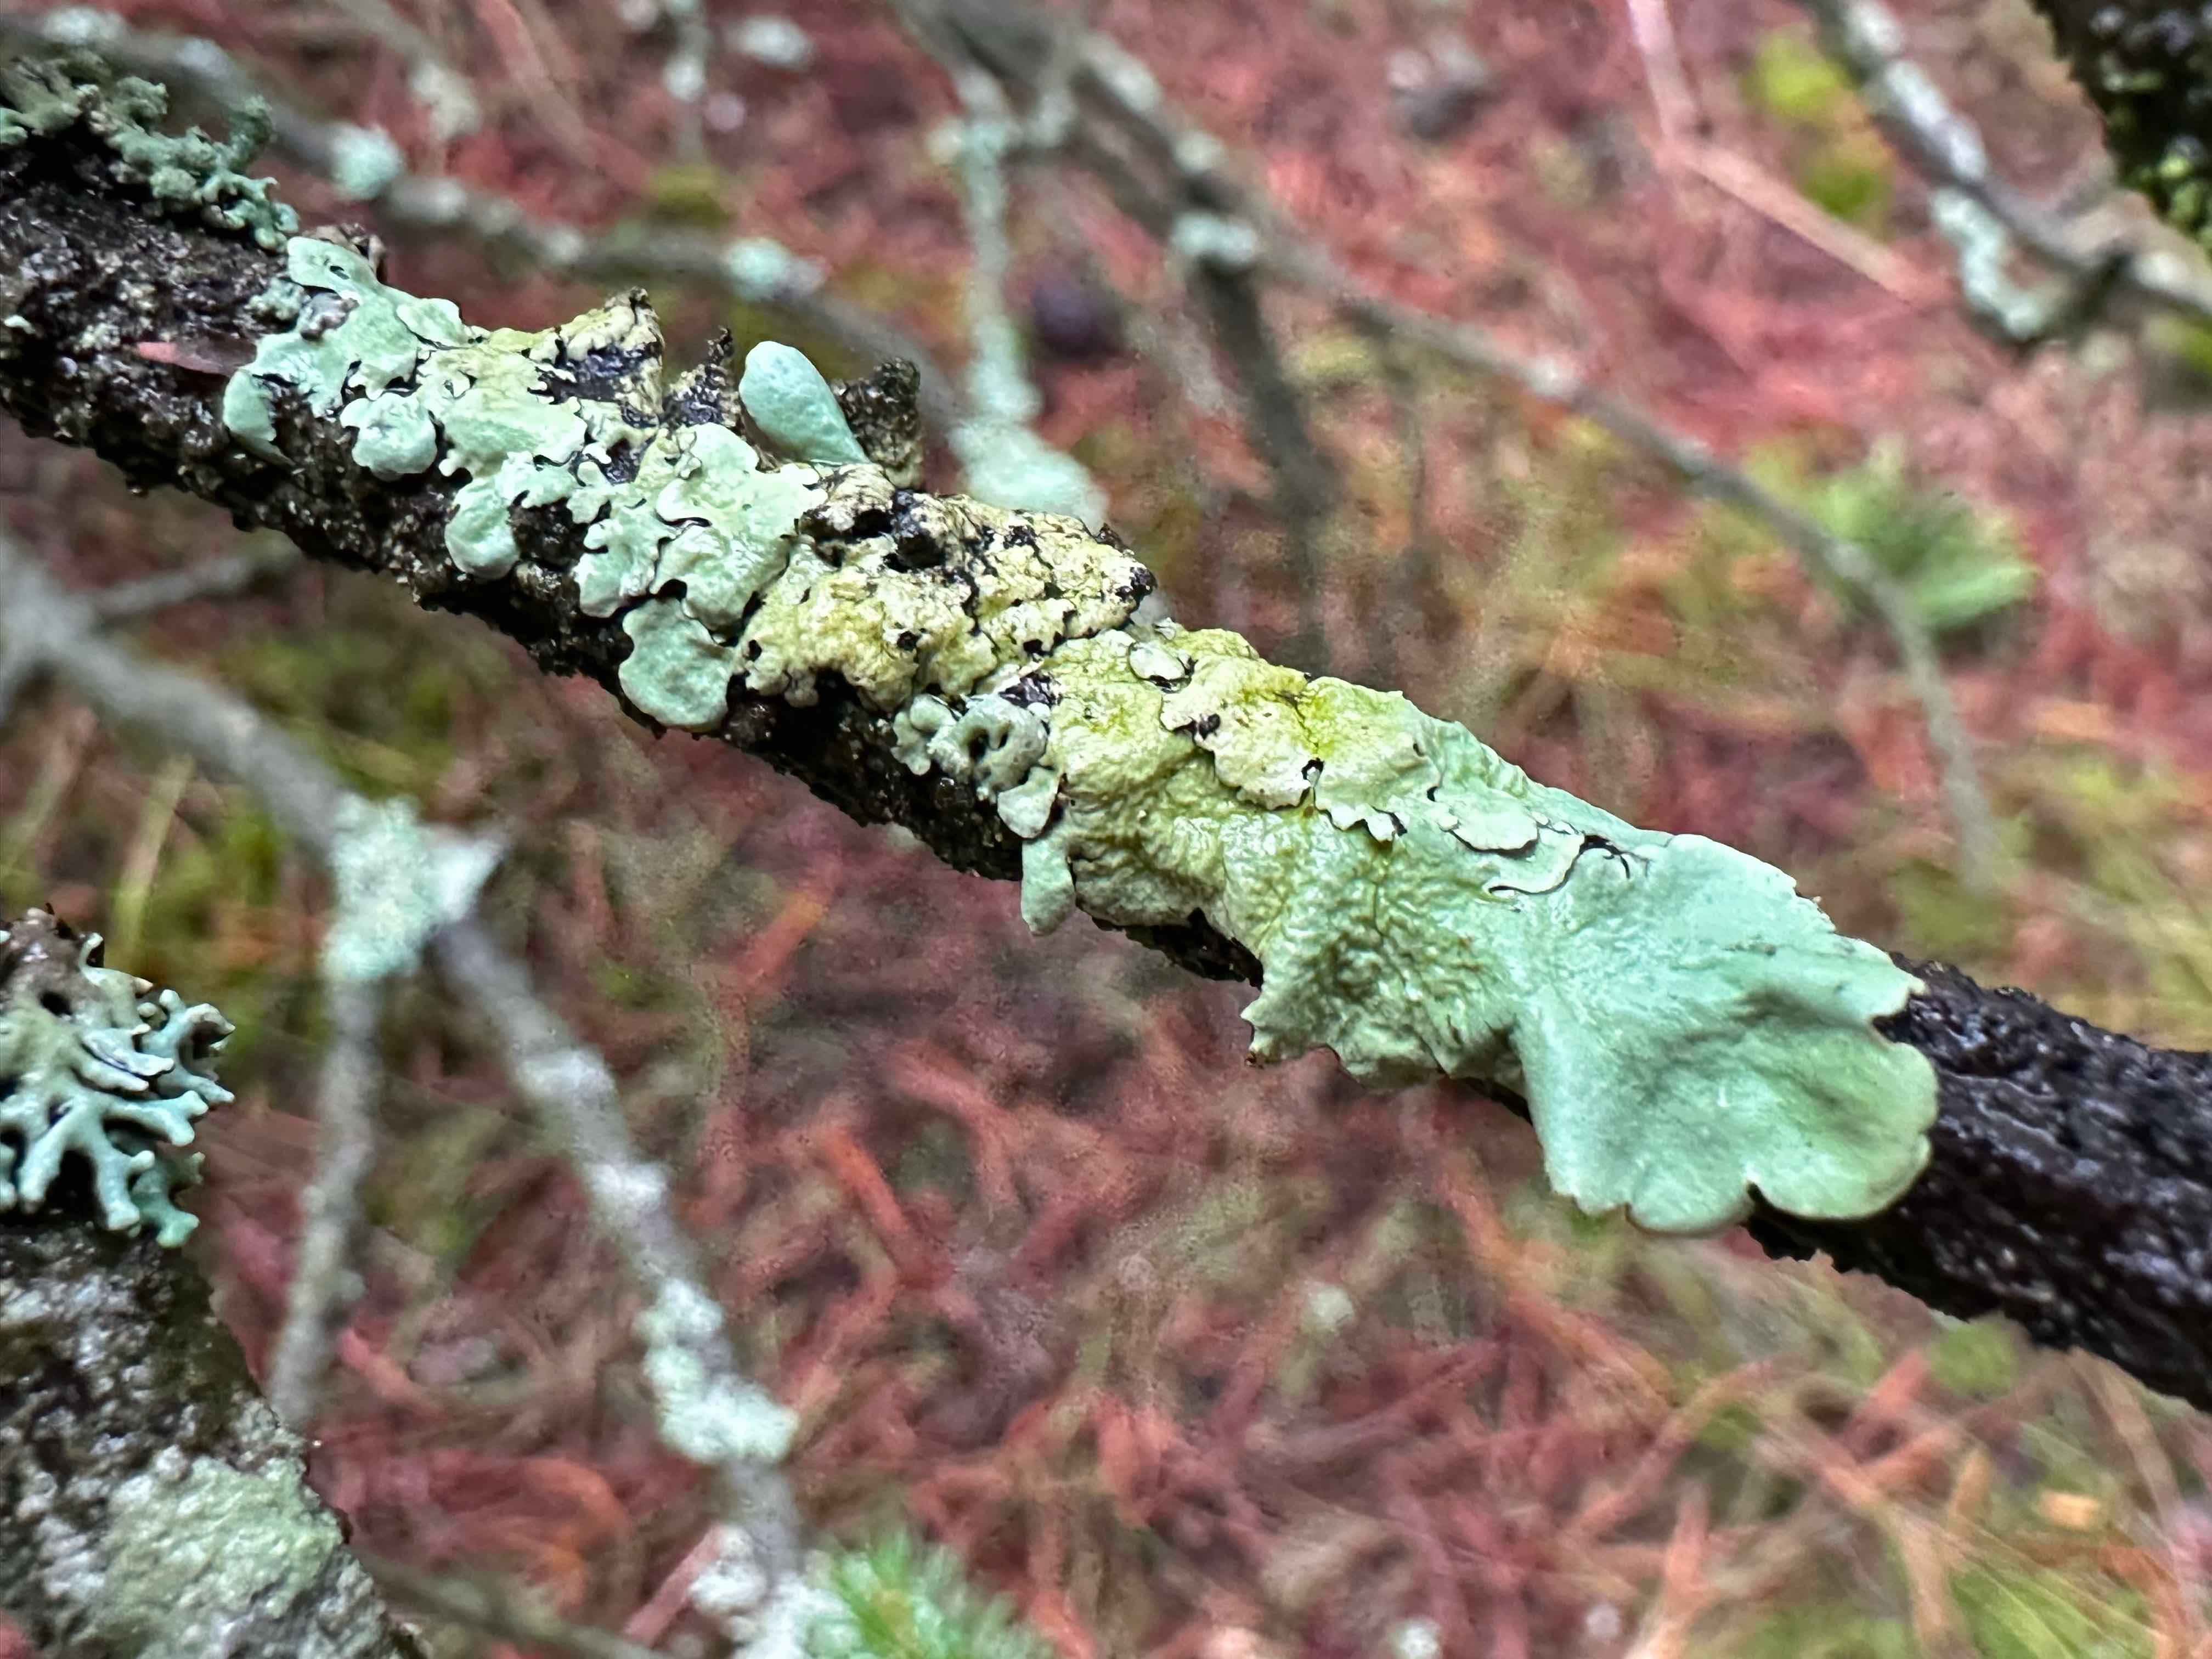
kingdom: Fungi
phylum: Ascomycota
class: Lecanoromycetes
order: Lecanorales
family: Parmeliaceae
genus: Flavoparmelia
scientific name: Flavoparmelia caperata
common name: gulgrøn skållav
